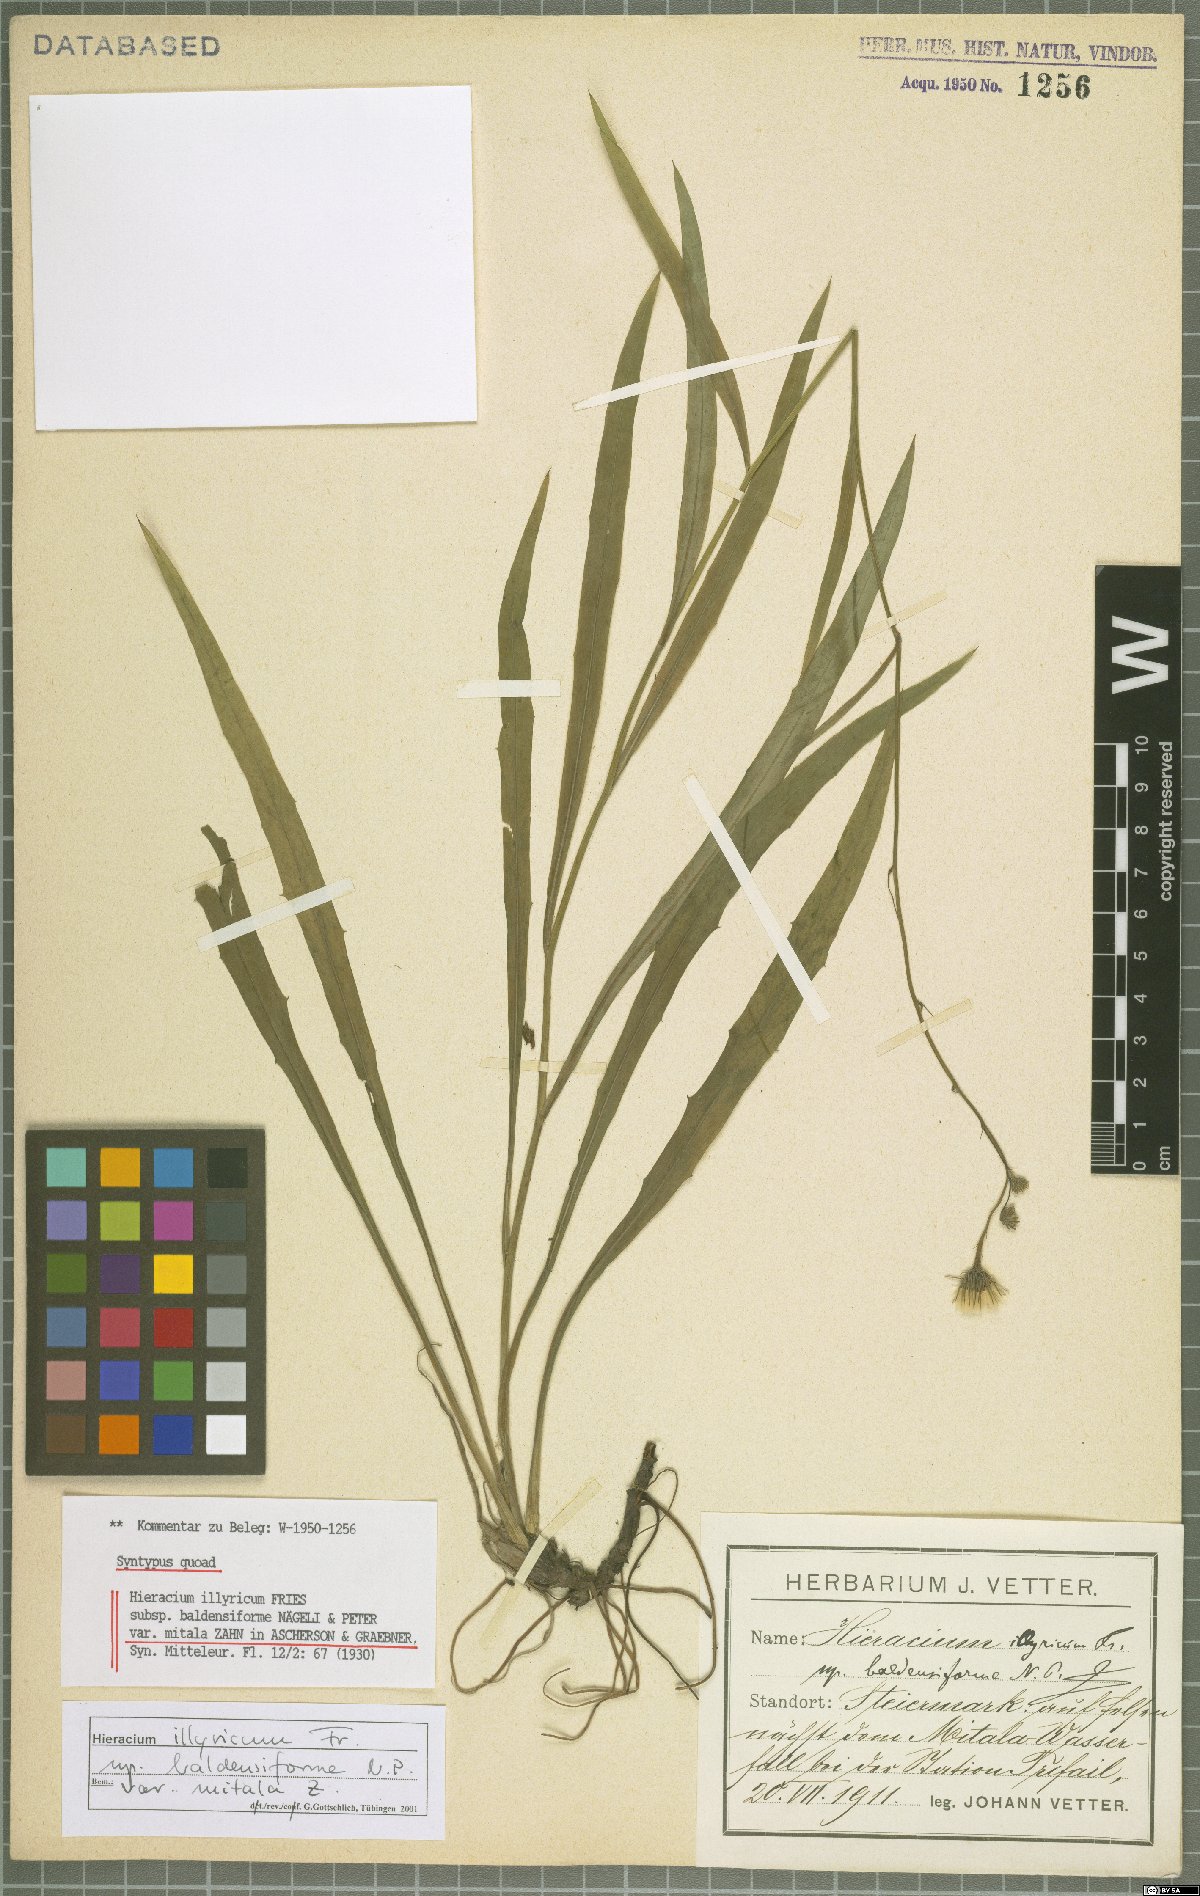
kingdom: Plantae
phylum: Tracheophyta
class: Magnoliopsida
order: Asterales
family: Asteraceae
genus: Hieracium
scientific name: Hieracium calcareum
